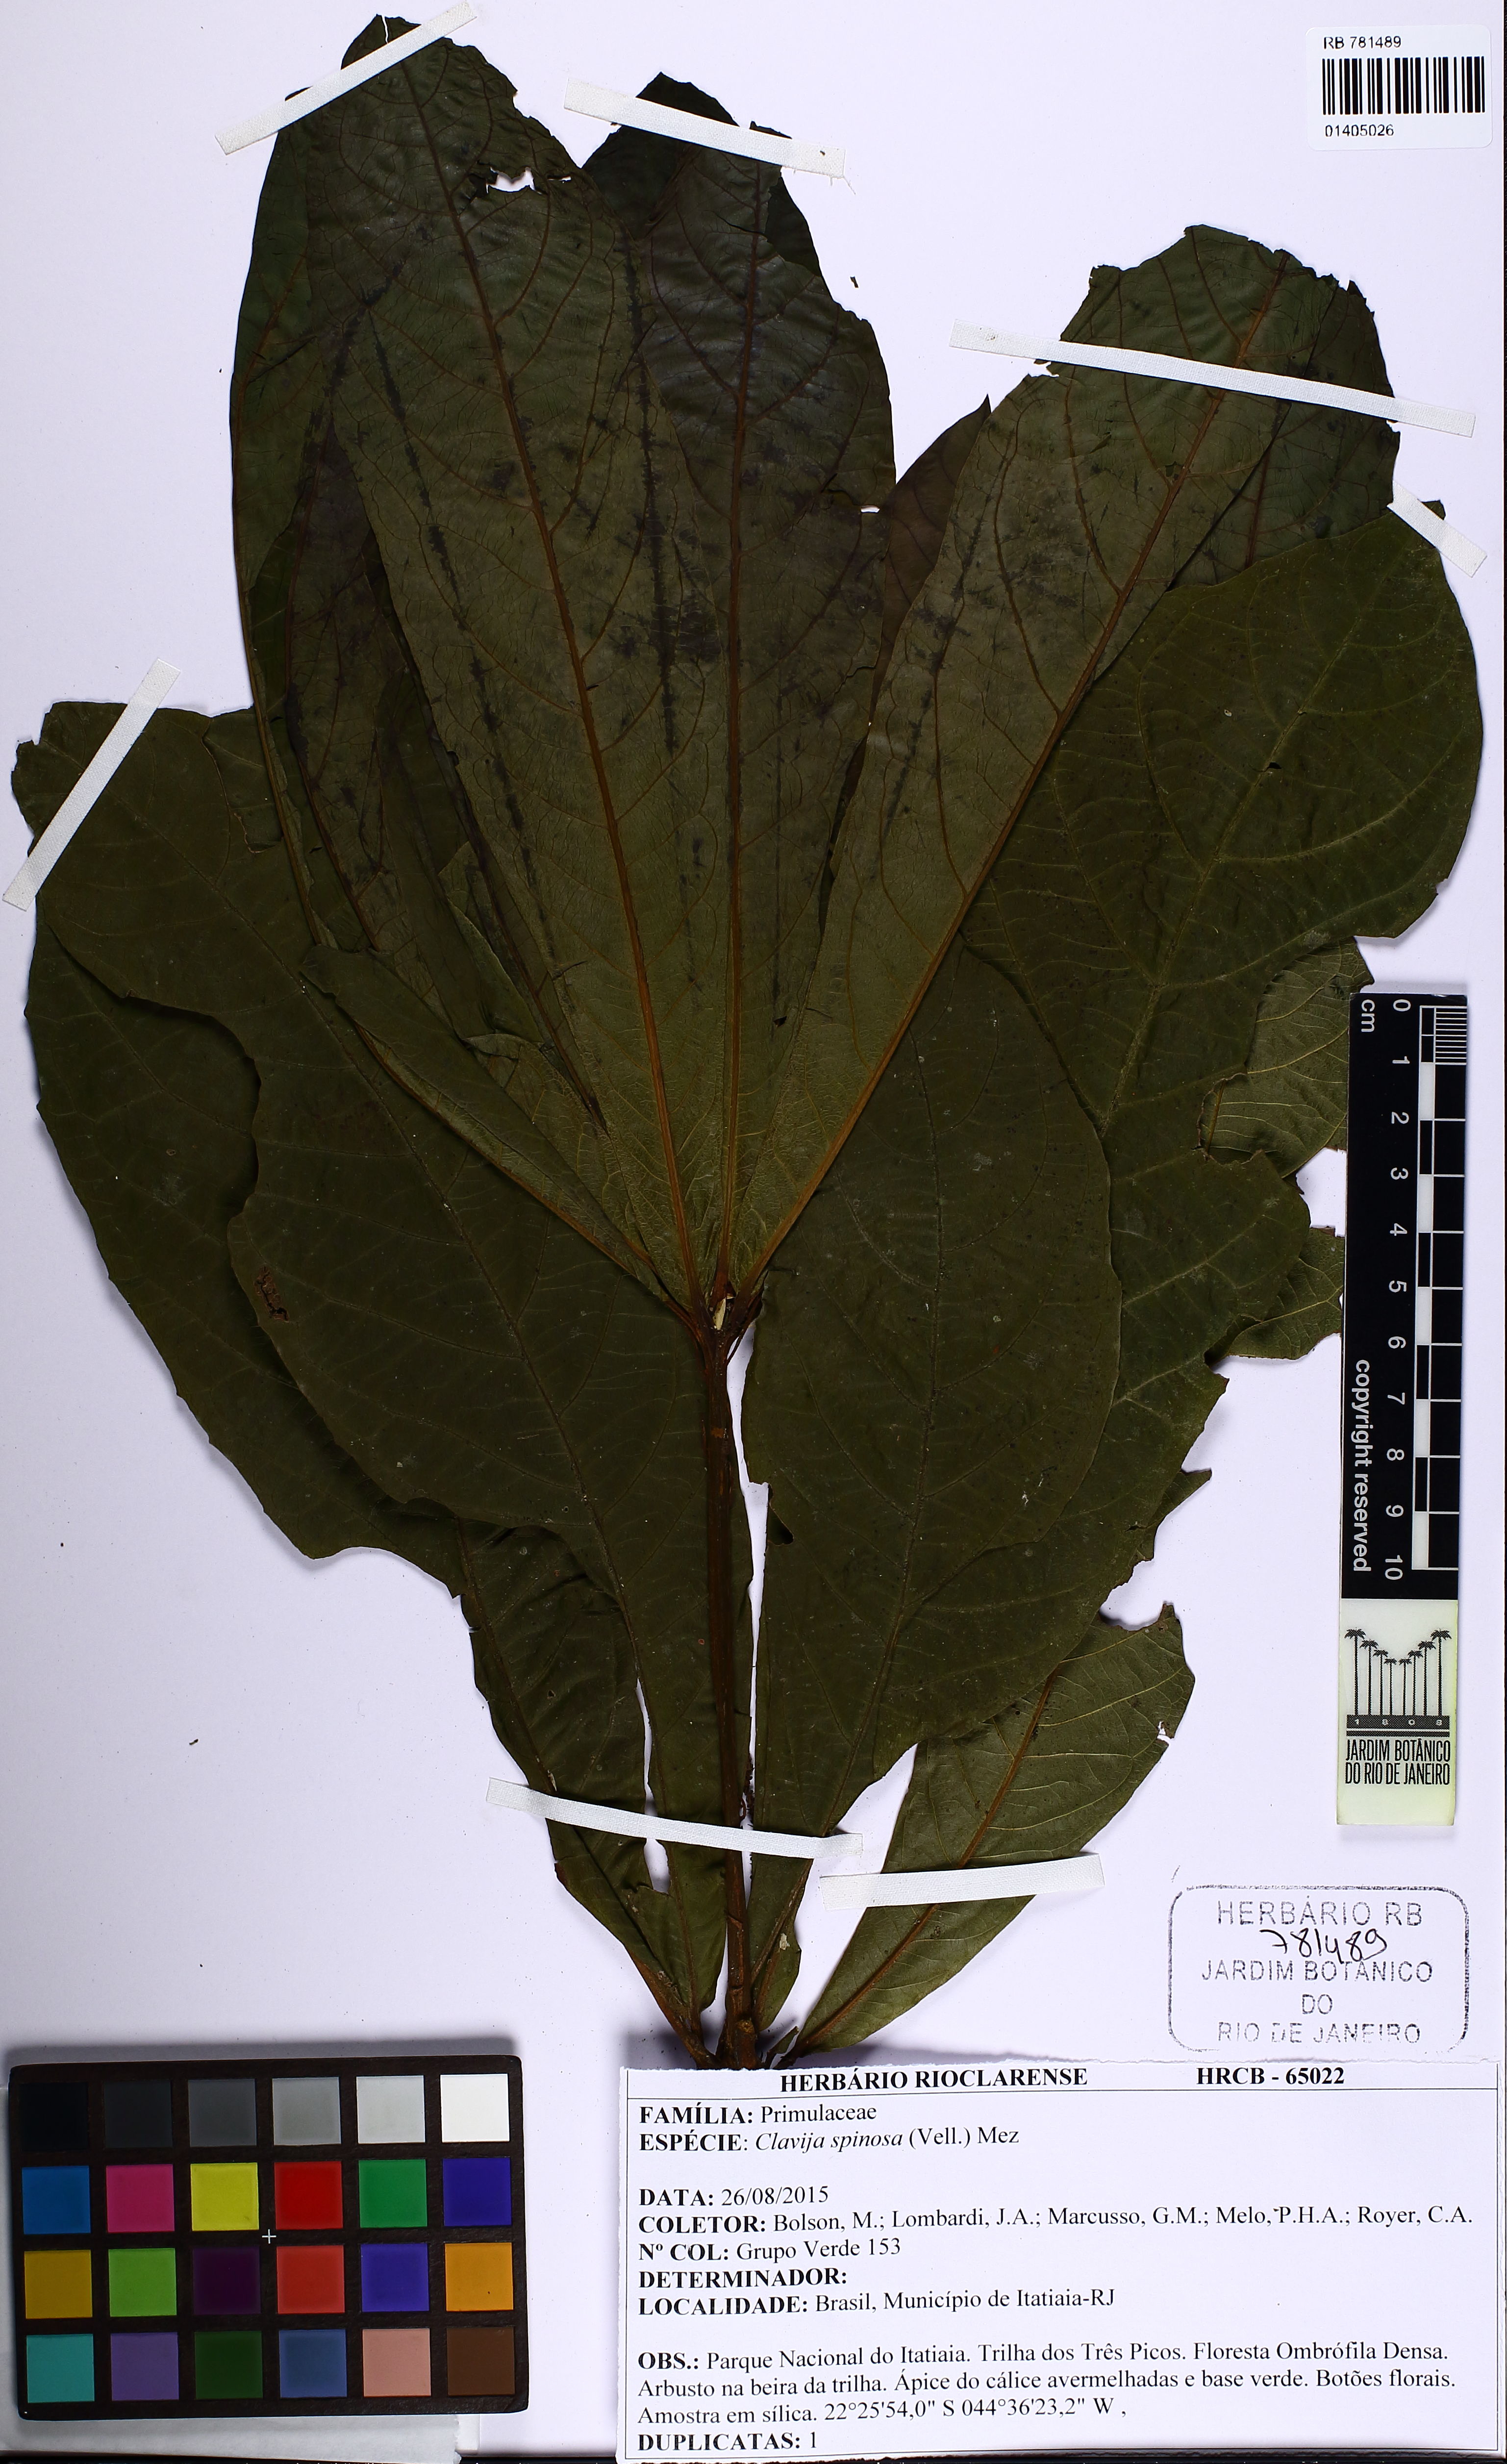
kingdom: Plantae
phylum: Tracheophyta
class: Magnoliopsida
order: Ericales
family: Primulaceae
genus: Clavija
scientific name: Clavija spinosa
